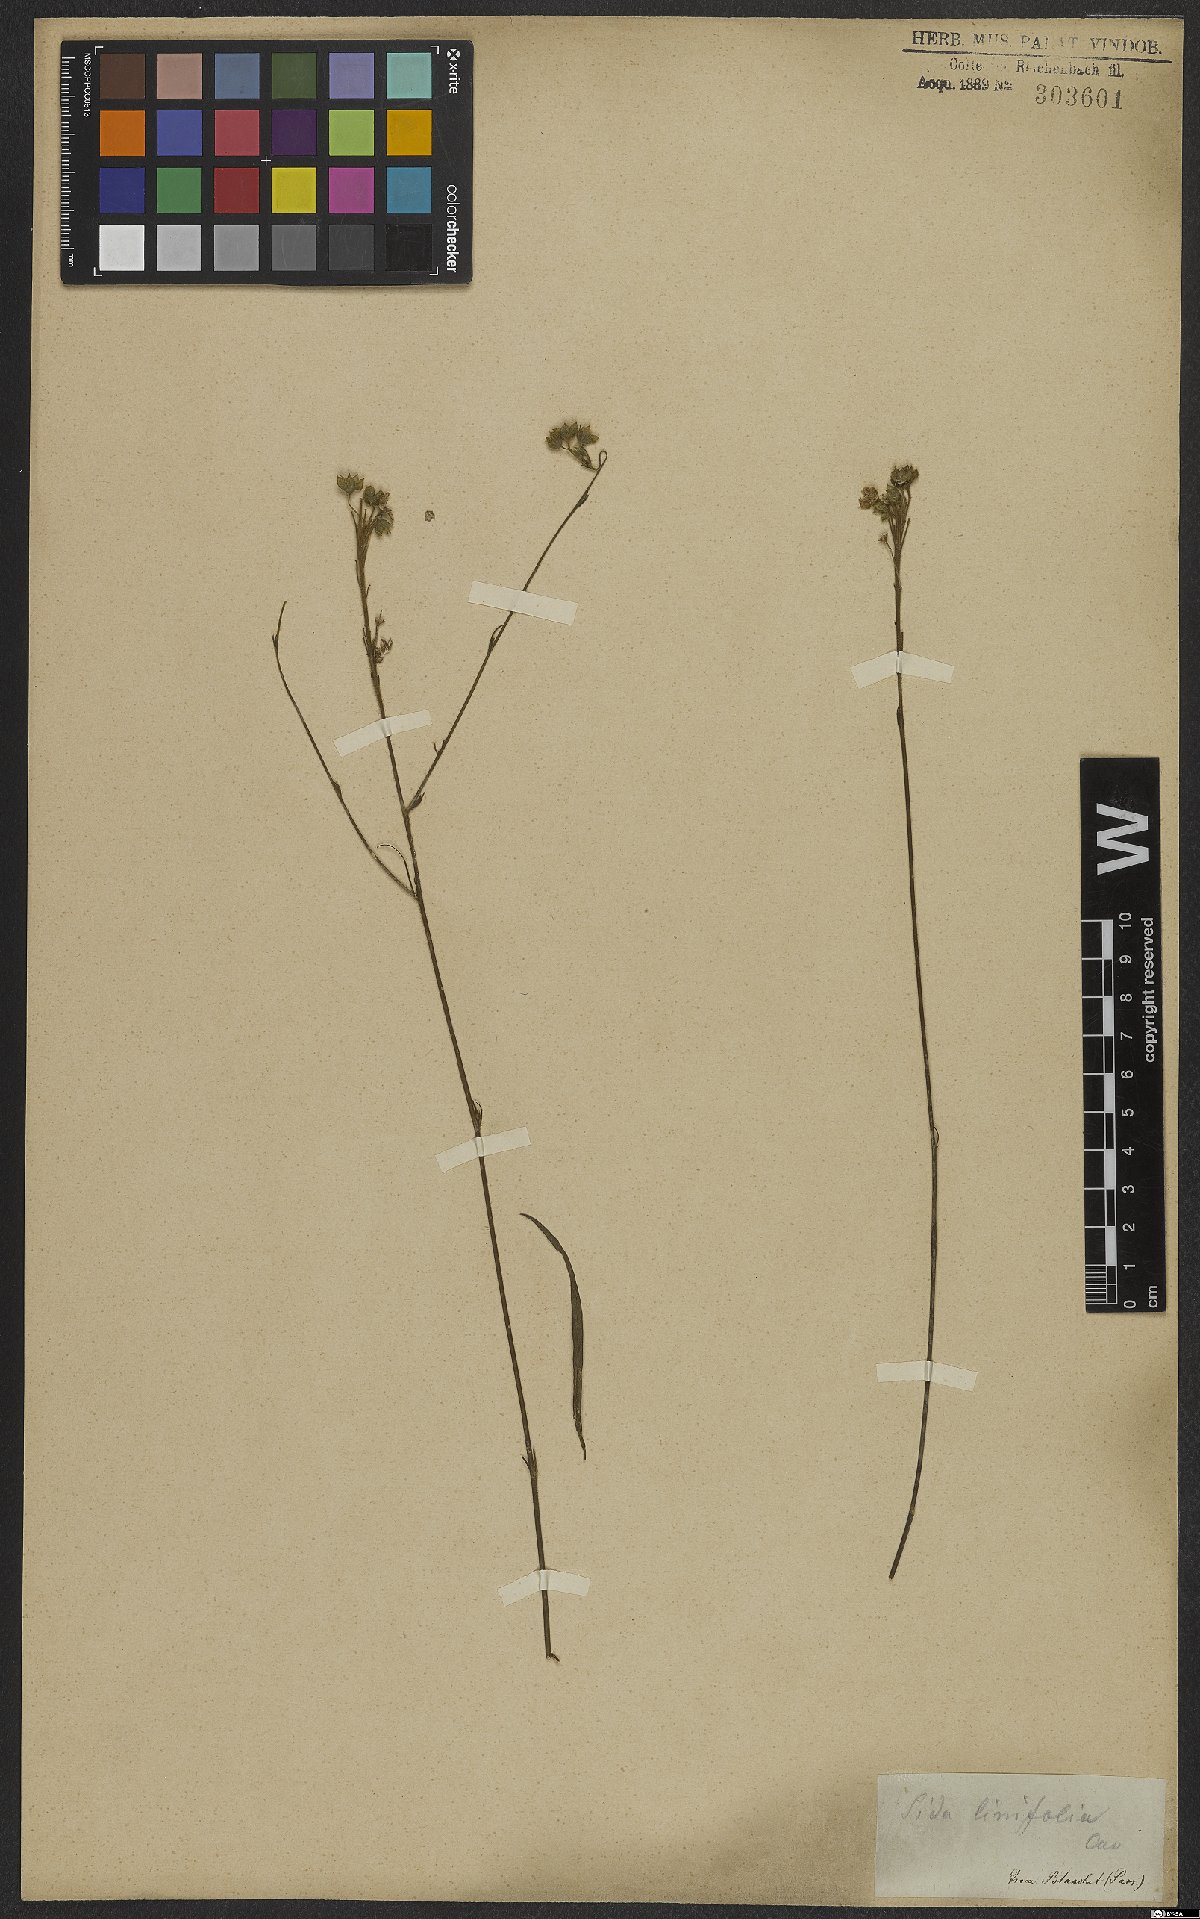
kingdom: Plantae
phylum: Tracheophyta
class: Magnoliopsida
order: Malvales
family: Malvaceae
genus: Sida
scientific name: Sida linifolia
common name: Flaxleaf fanpetals
